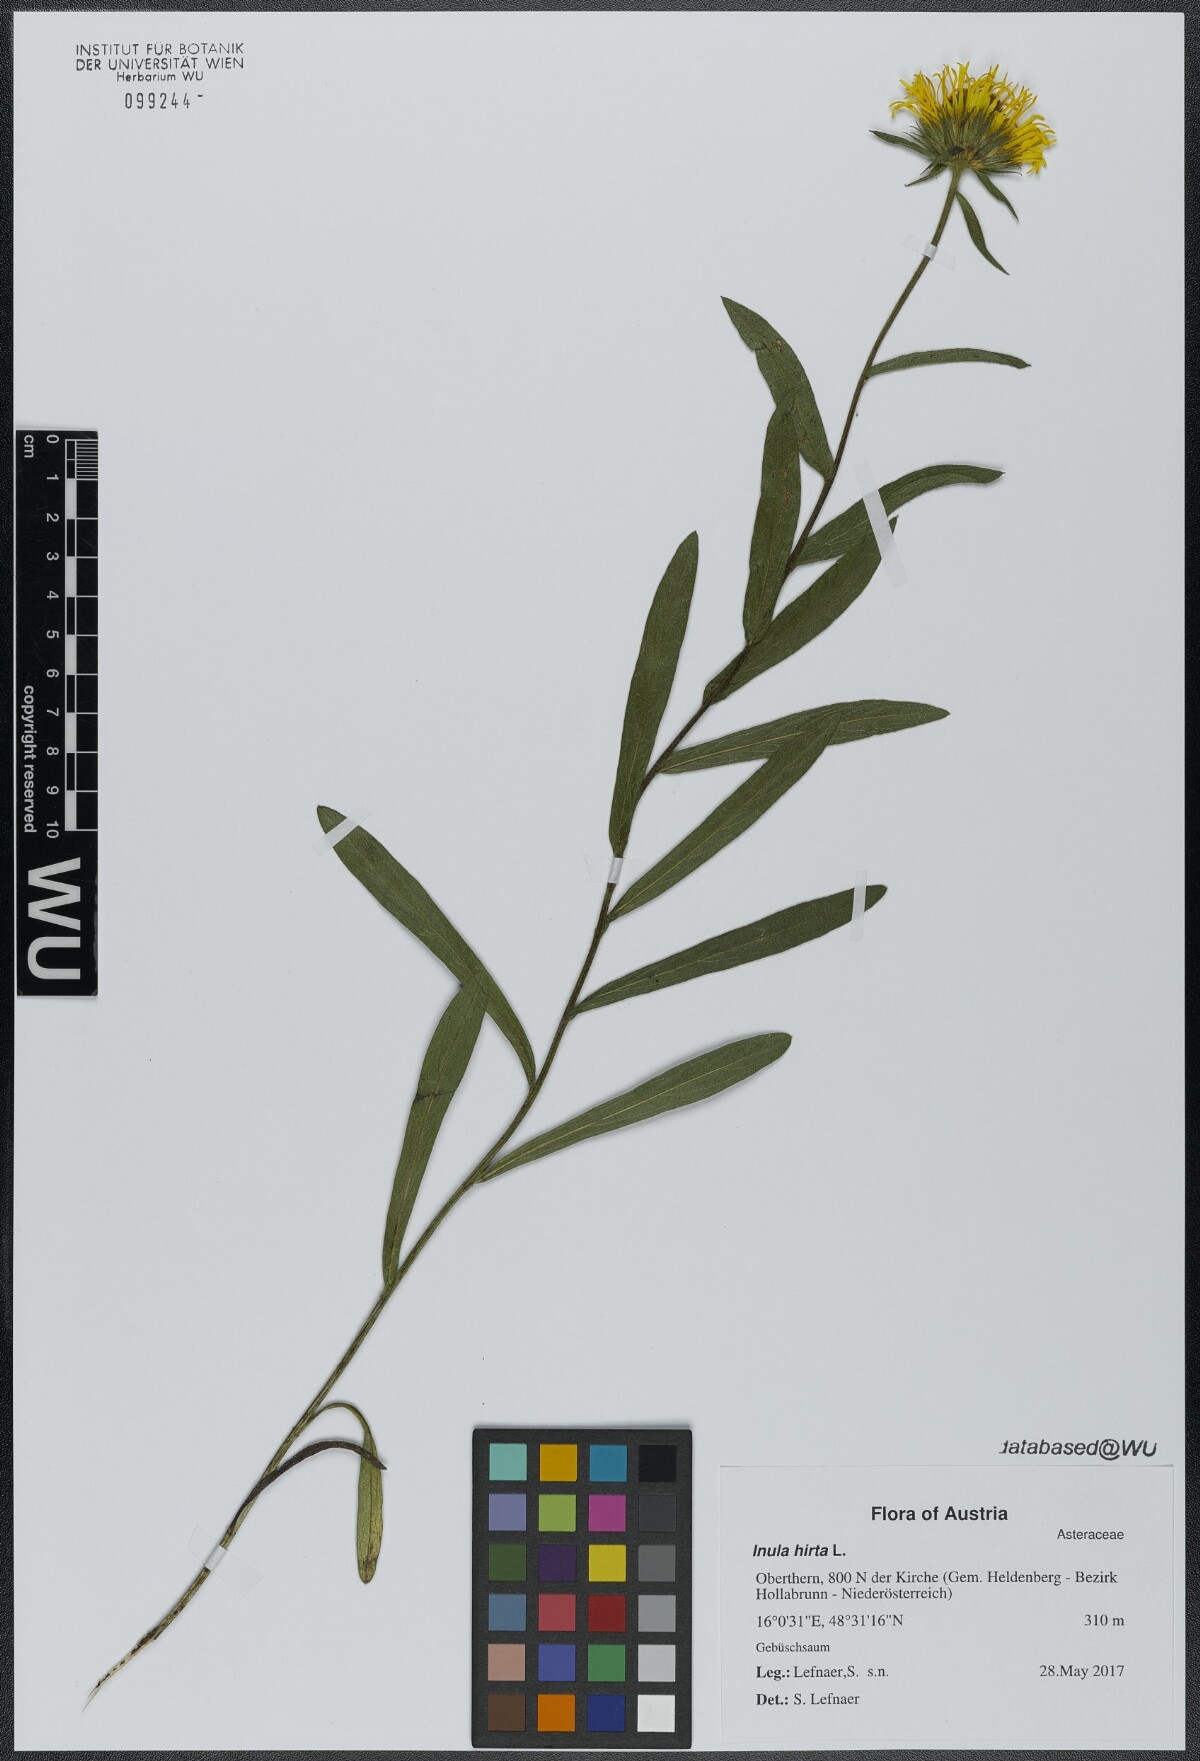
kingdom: Plantae
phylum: Tracheophyta
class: Magnoliopsida
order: Asterales
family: Asteraceae
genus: Pentanema
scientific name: Pentanema hirtum
